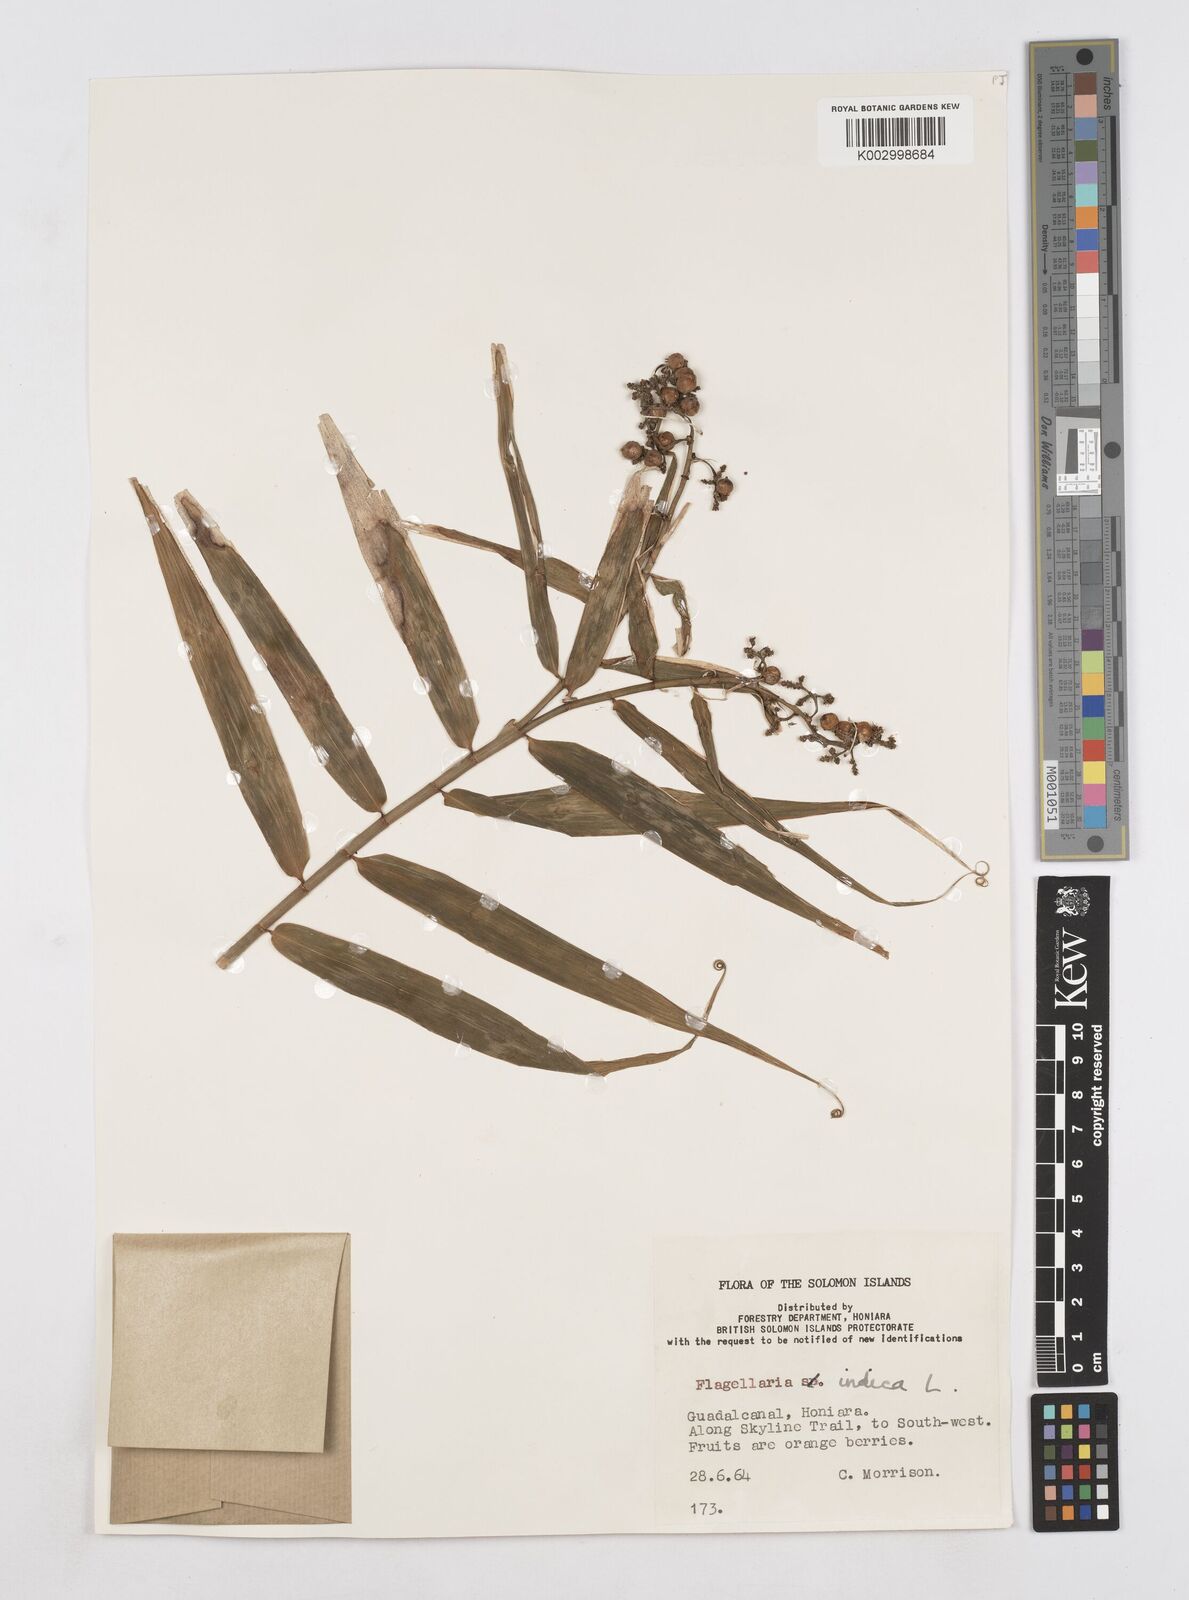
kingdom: Plantae
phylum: Tracheophyta
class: Liliopsida
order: Poales
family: Flagellariaceae
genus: Flagellaria
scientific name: Flagellaria indica
